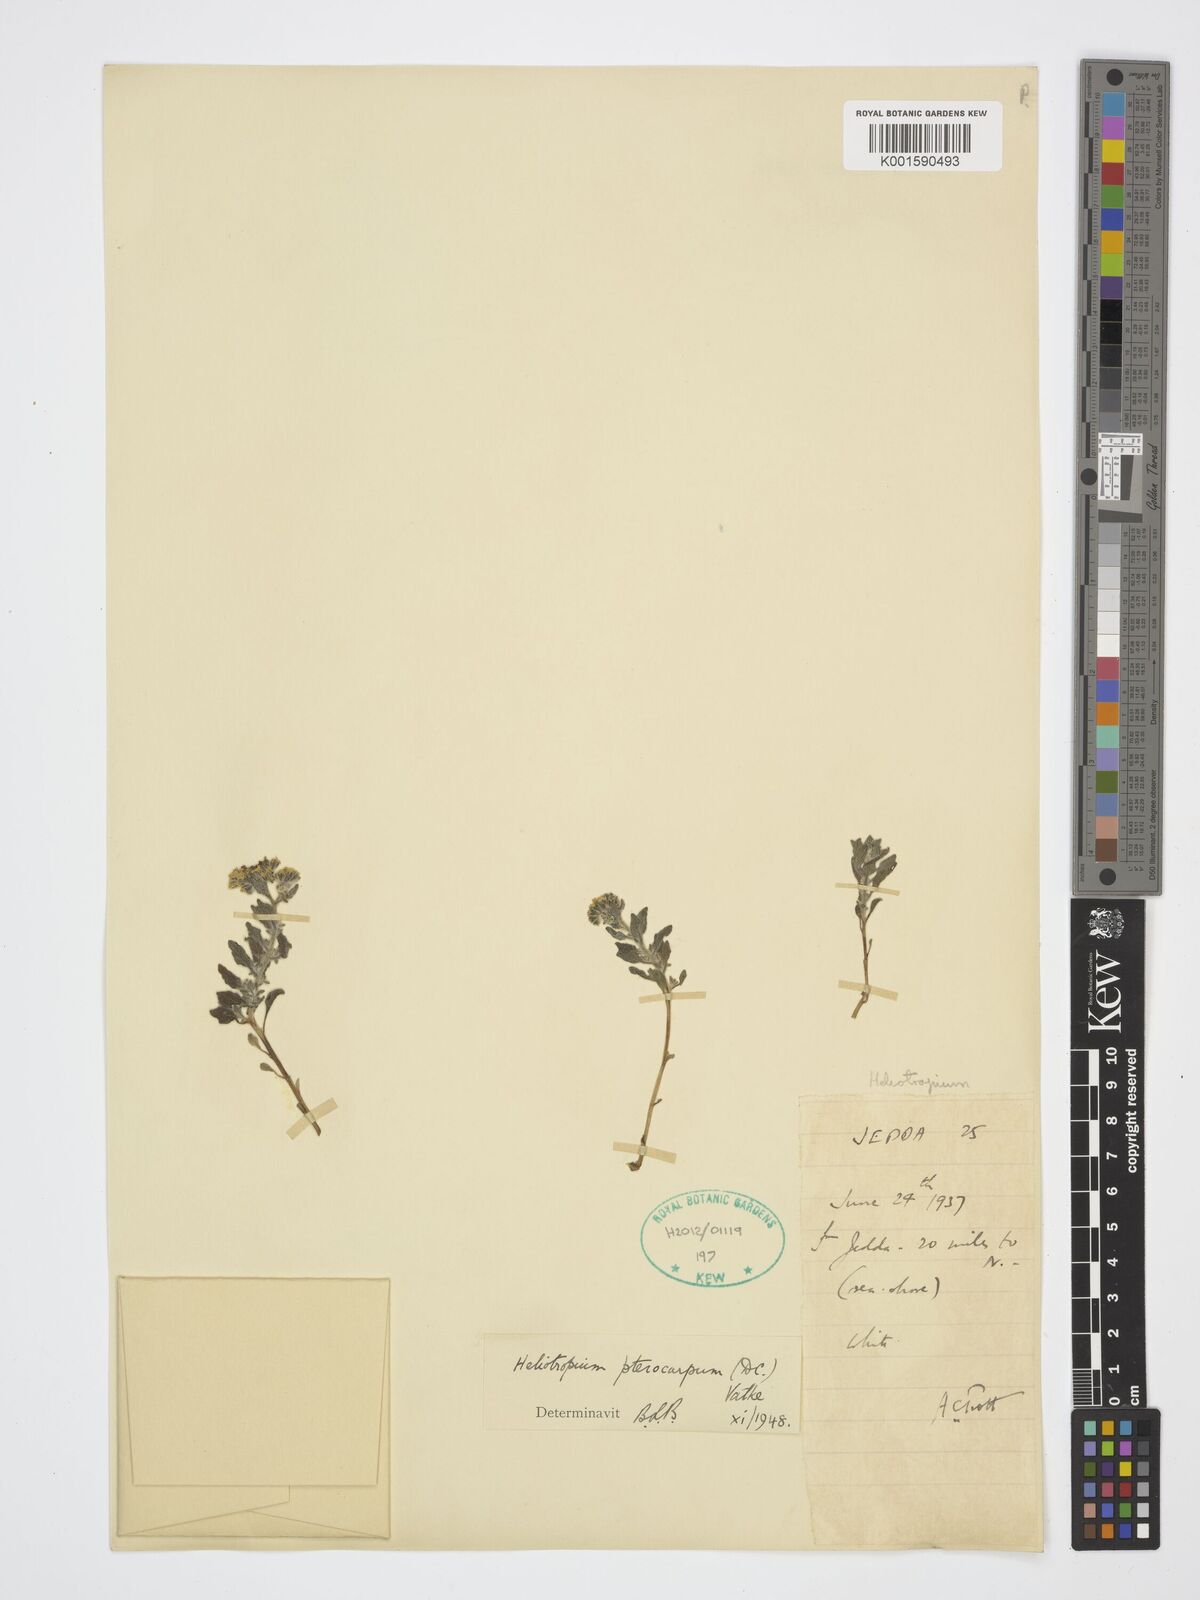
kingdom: Plantae
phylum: Tracheophyta
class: Magnoliopsida
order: Boraginales
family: Heliotropiaceae
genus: Heliotropium
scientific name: Heliotropium pterocarpum
